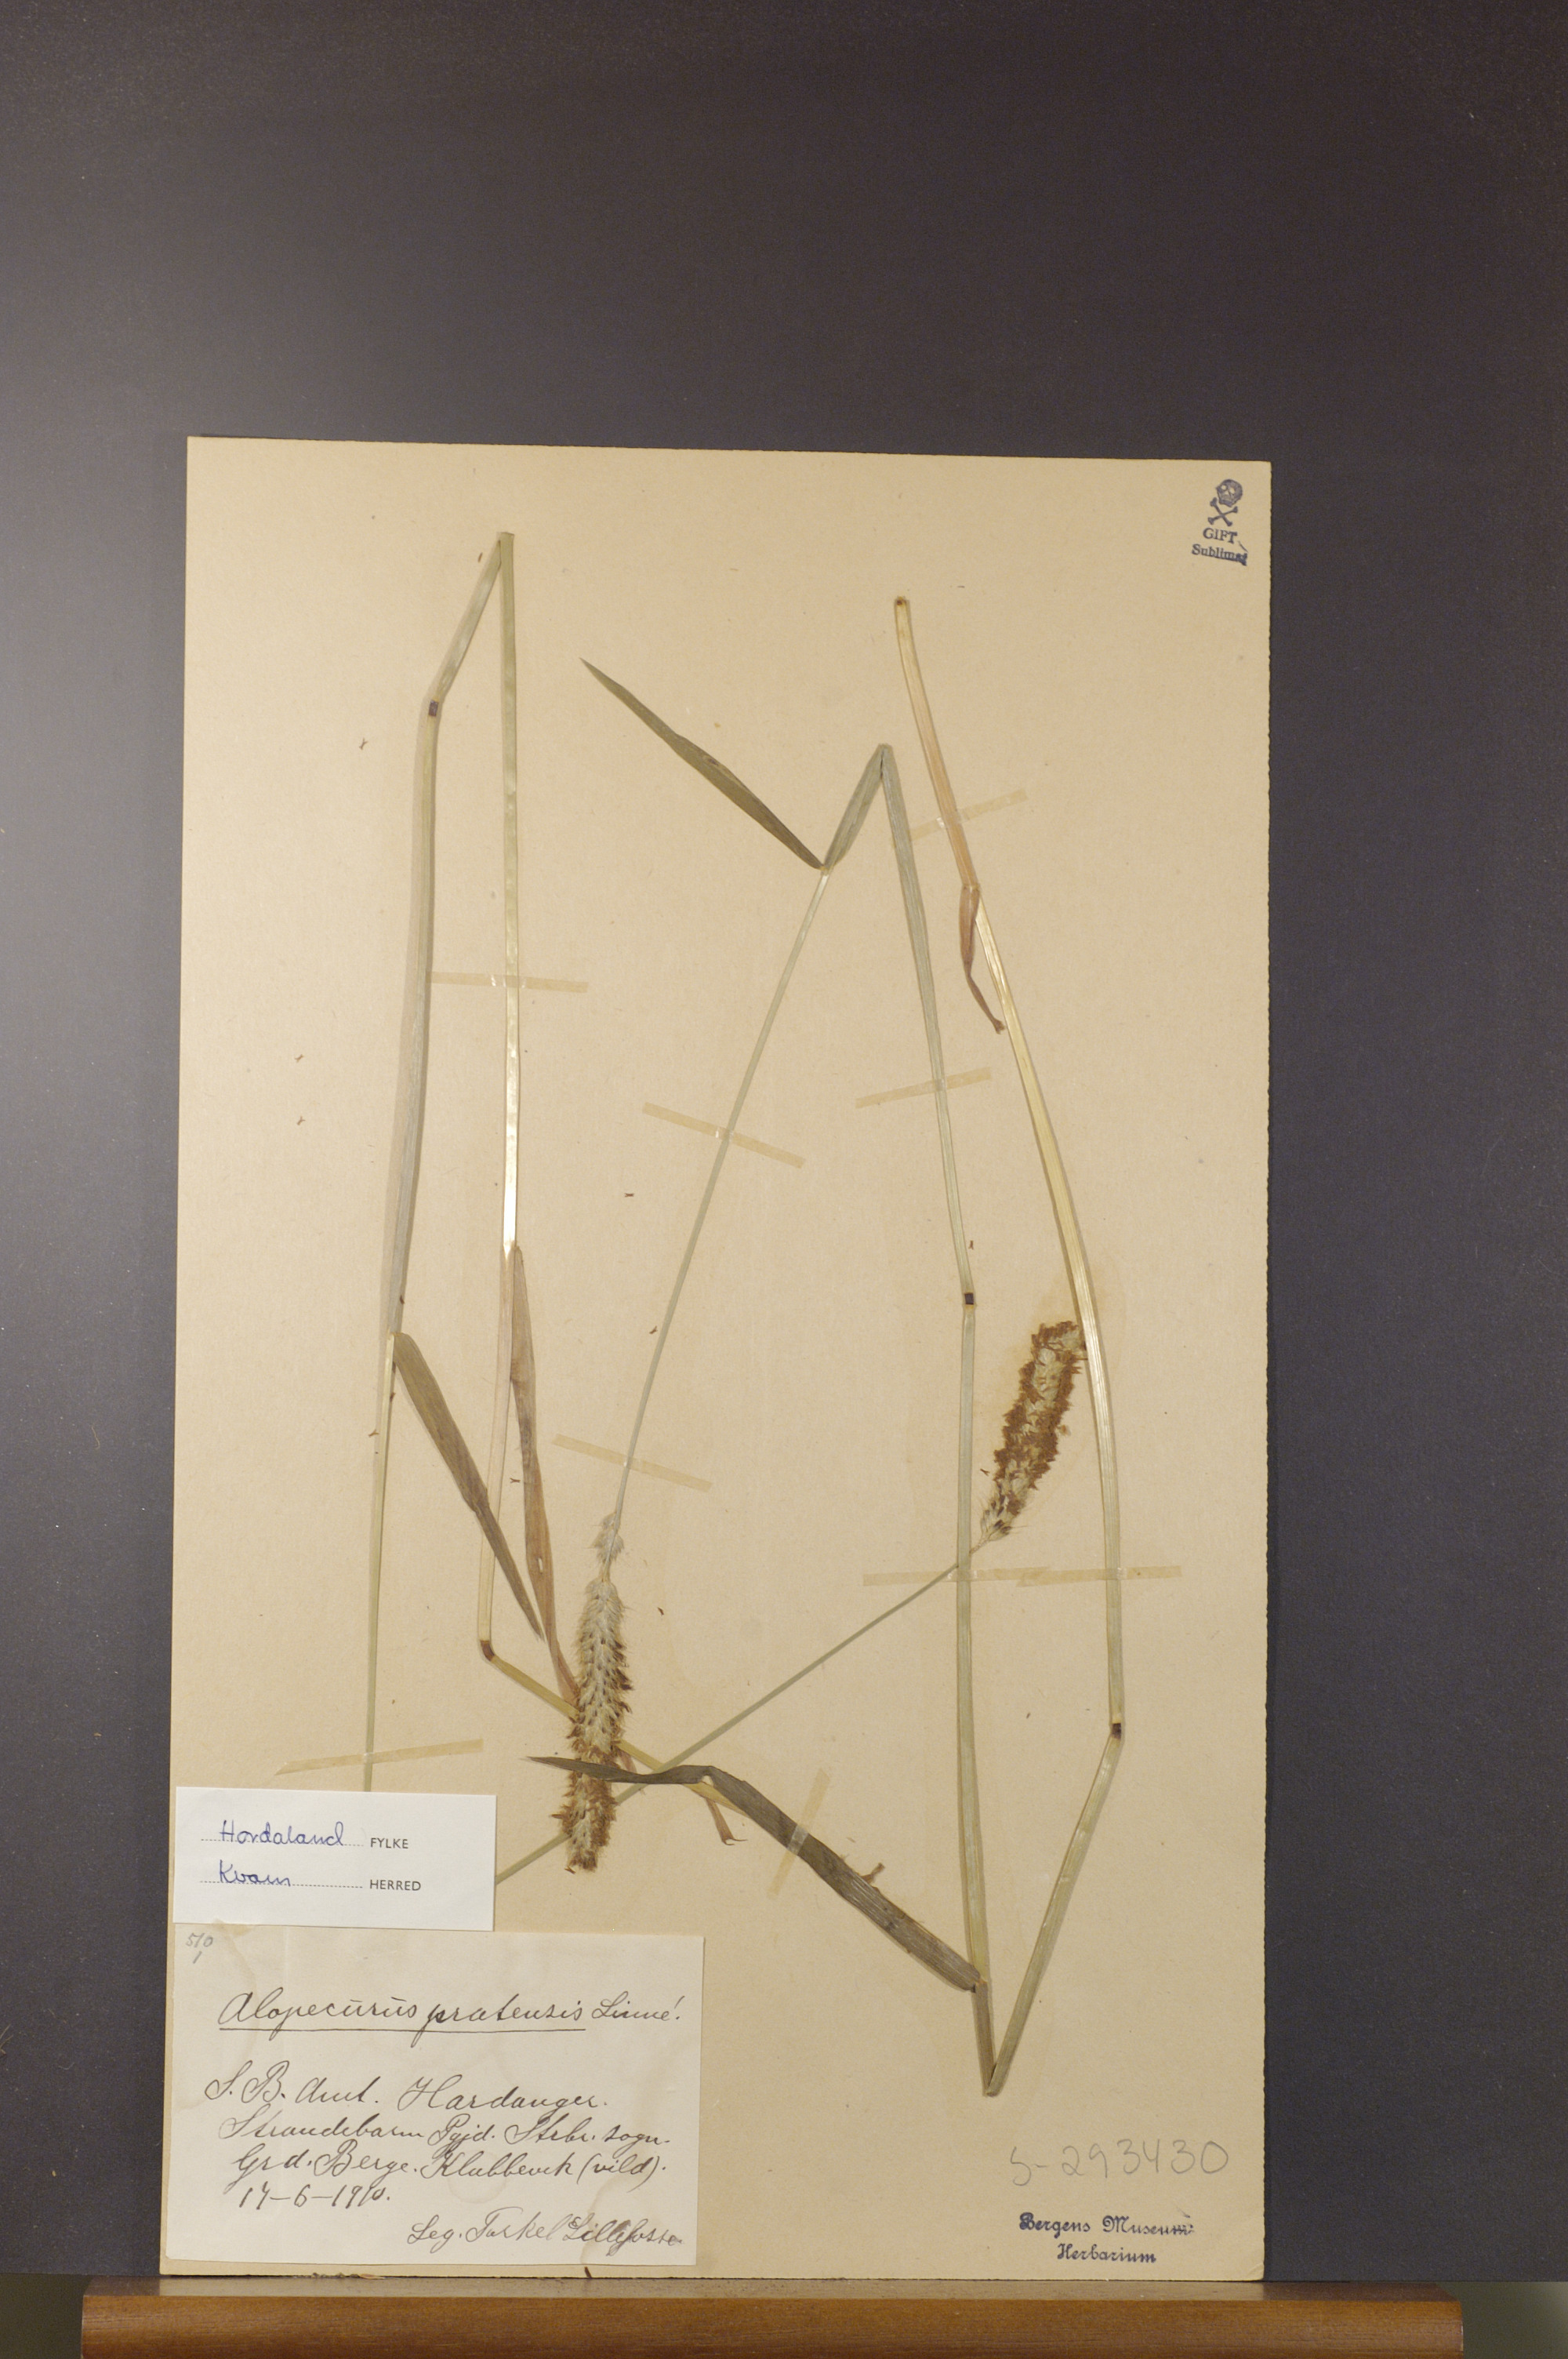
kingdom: Plantae
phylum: Tracheophyta
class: Liliopsida
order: Poales
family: Poaceae
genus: Alopecurus
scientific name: Alopecurus pratensis
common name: Meadow foxtail
